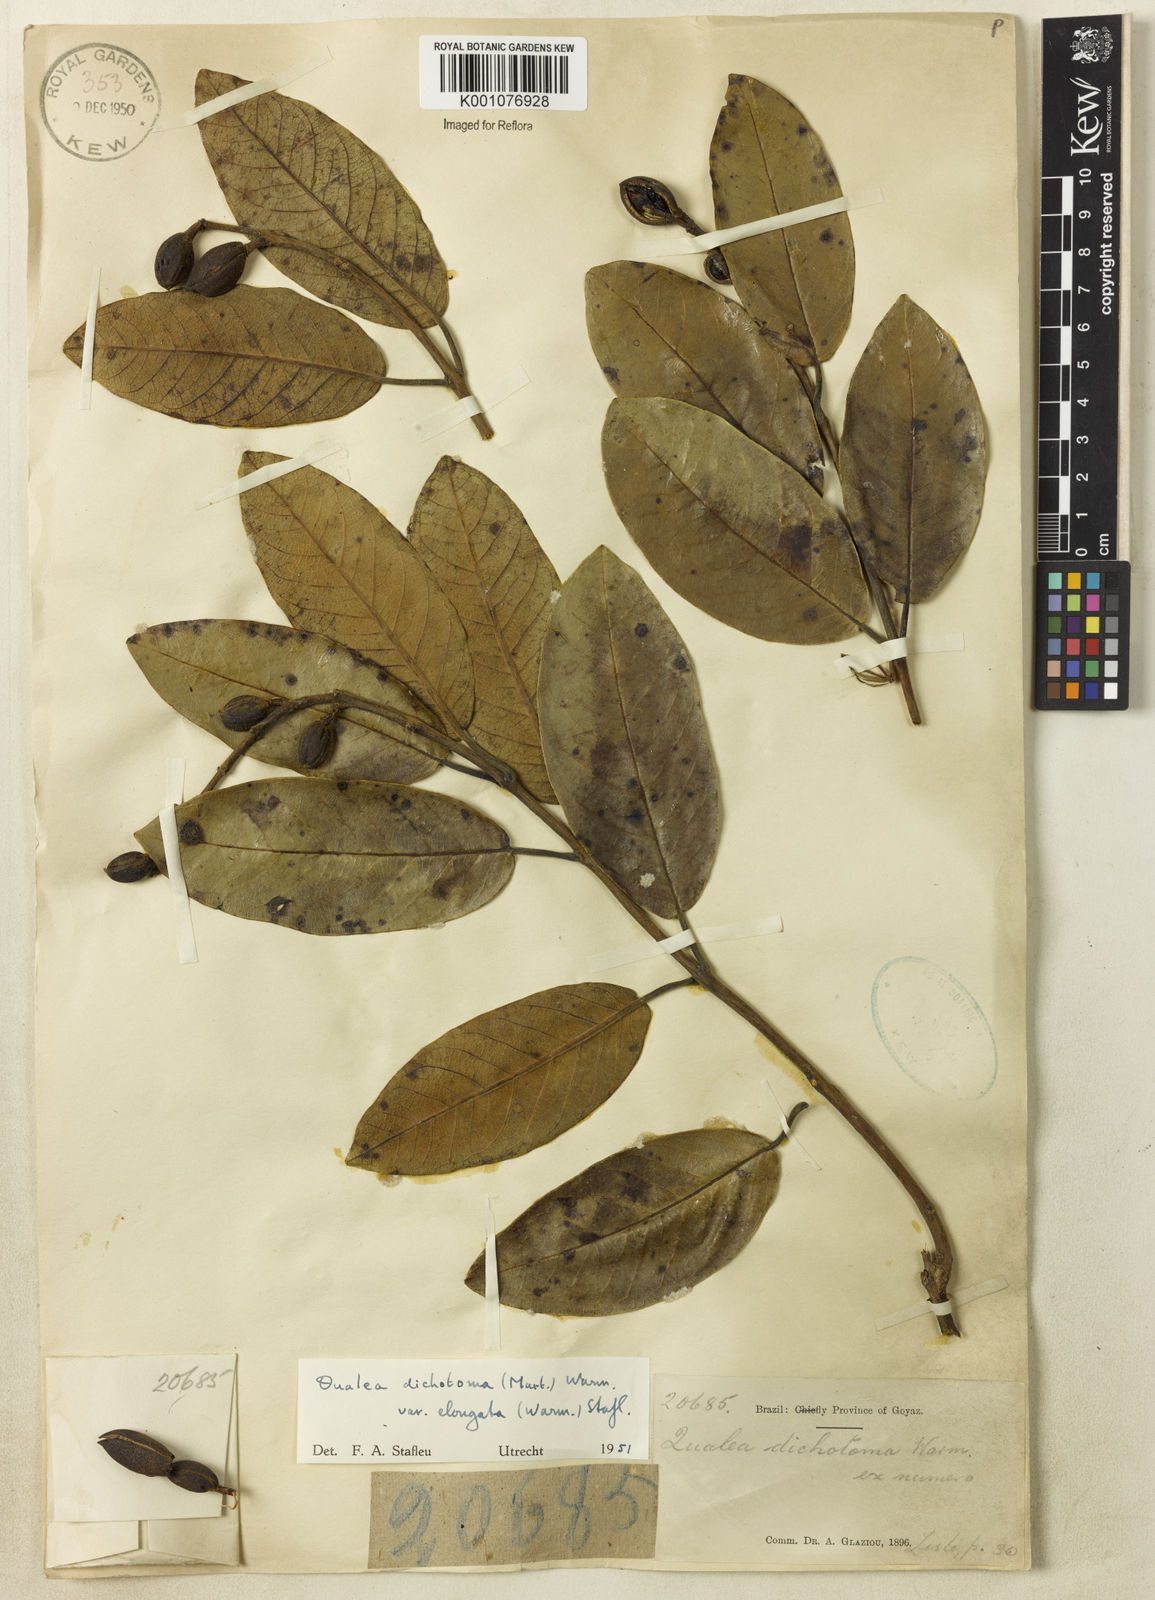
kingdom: Plantae
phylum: Tracheophyta
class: Magnoliopsida
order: Myrtales
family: Vochysiaceae
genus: Qualea
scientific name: Qualea cordata
